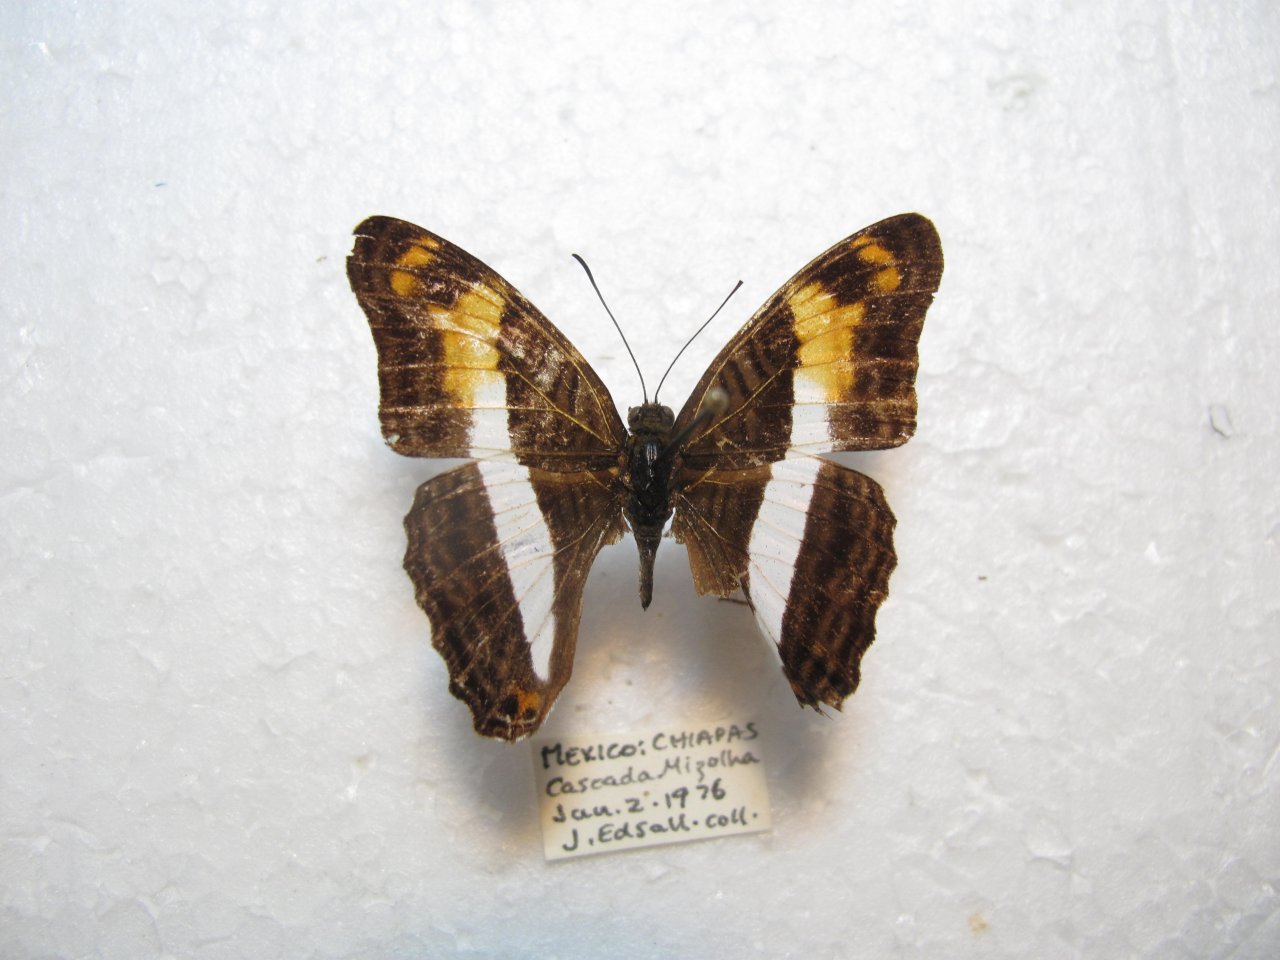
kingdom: Animalia
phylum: Arthropoda
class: Insecta
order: Lepidoptera
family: Nymphalidae
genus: Limenitis
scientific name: Limenitis boeotia
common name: Oberthur's Sister
